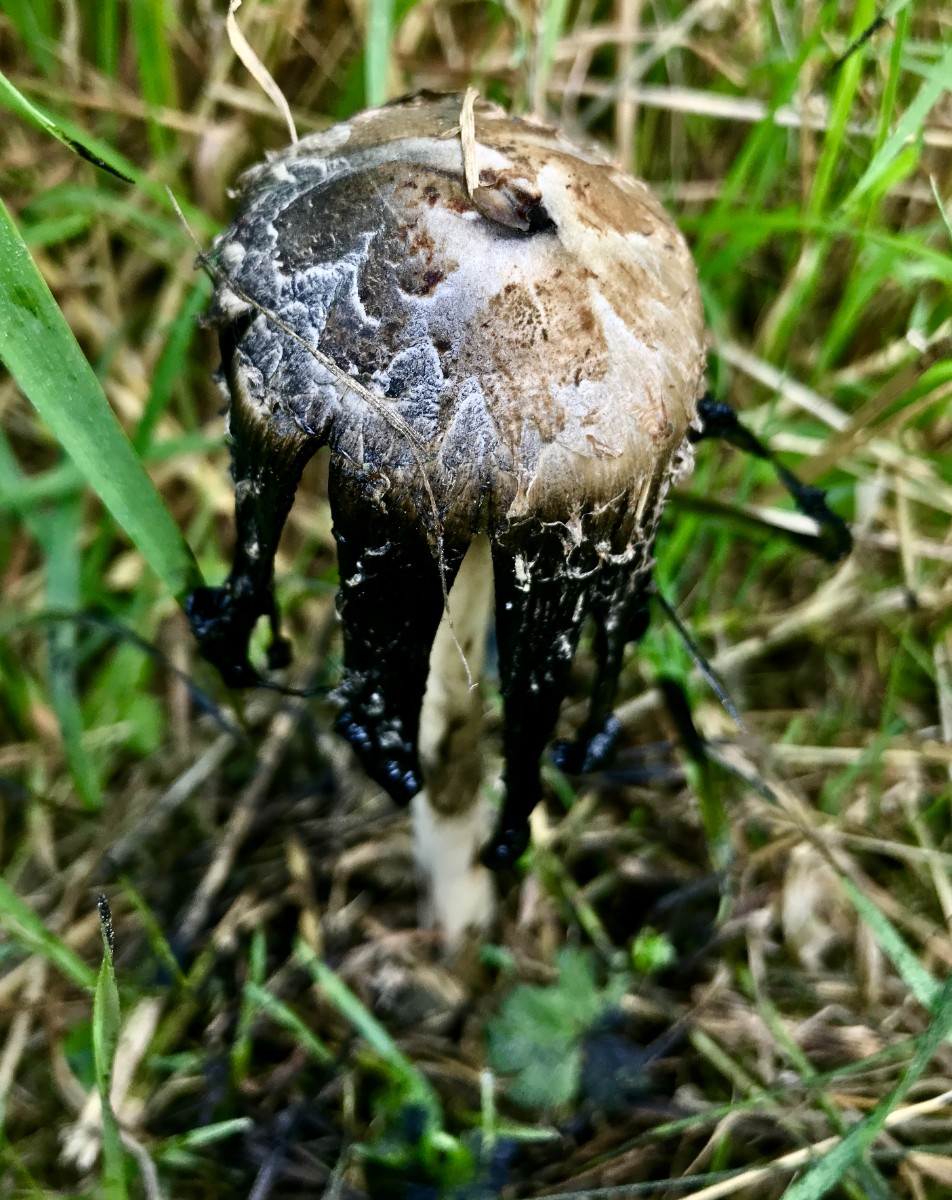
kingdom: Fungi
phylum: Basidiomycota
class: Agaricomycetes
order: Agaricales
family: Psathyrellaceae
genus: Coprinopsis
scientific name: Coprinopsis
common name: blækhat
